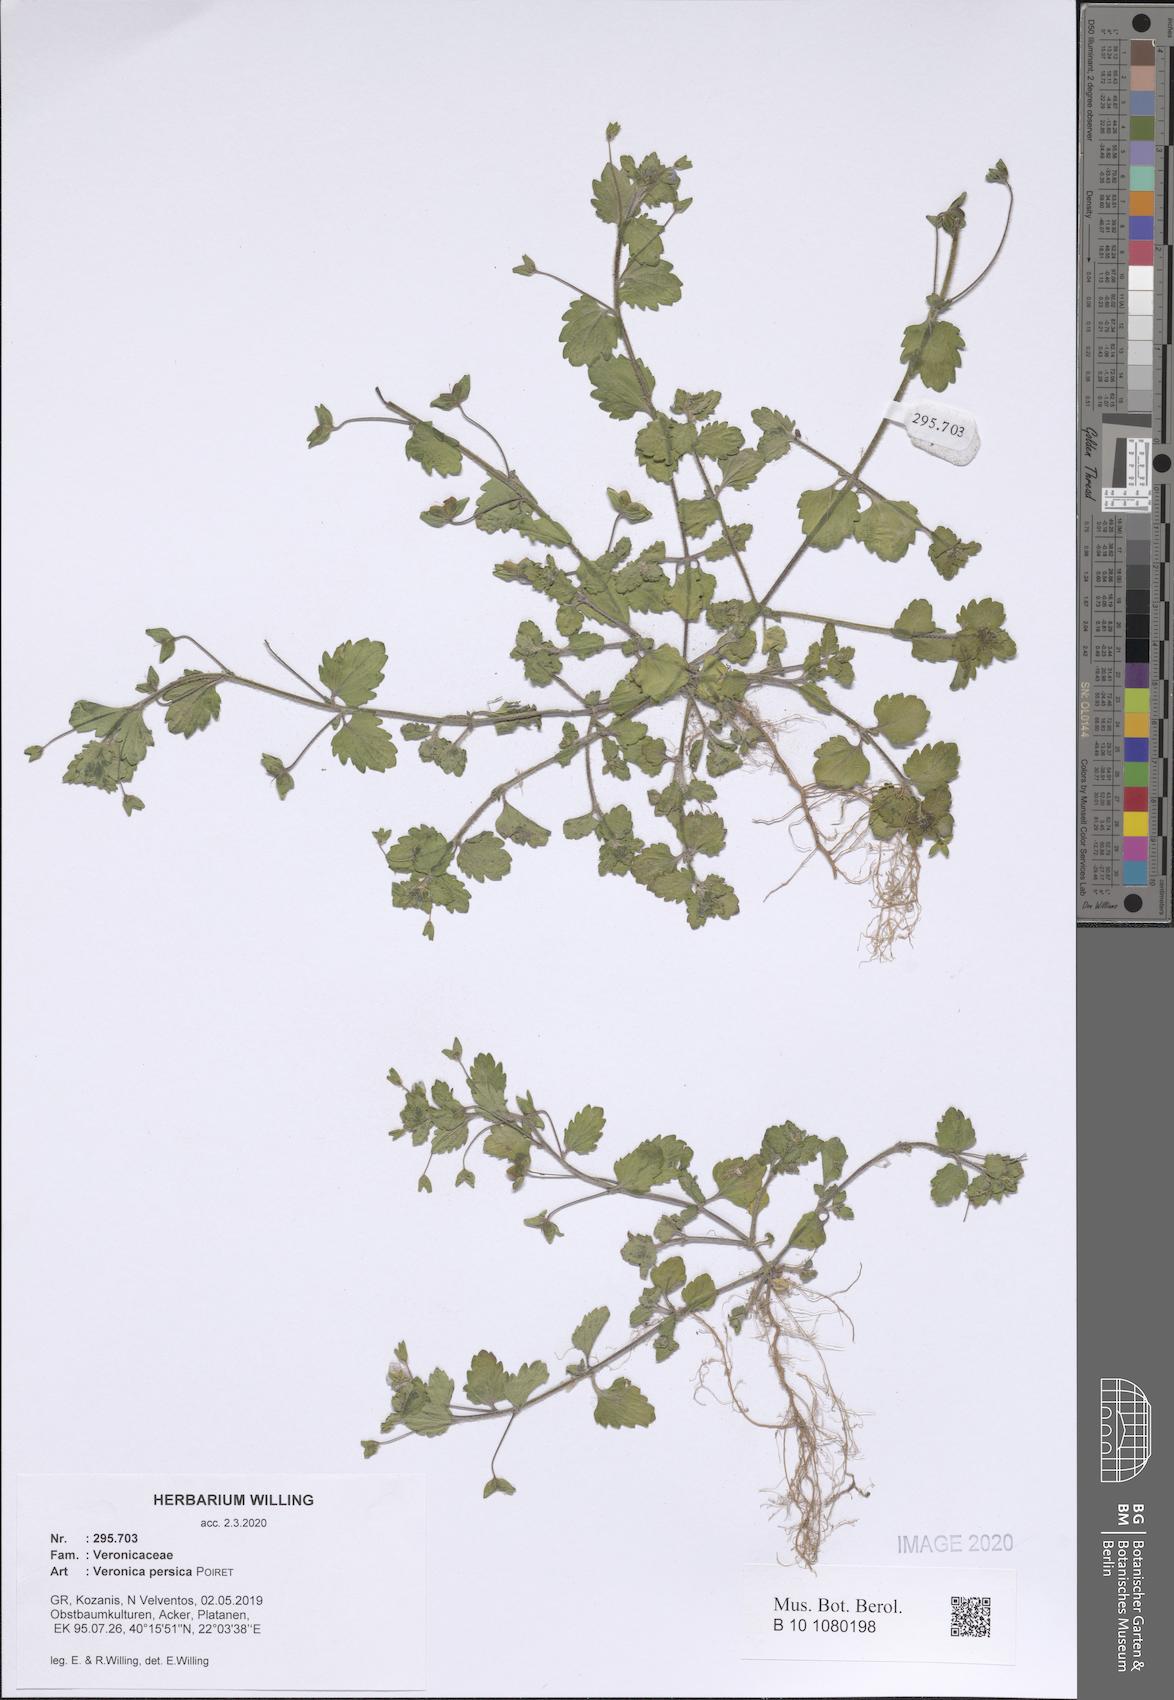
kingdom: Plantae
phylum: Tracheophyta
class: Magnoliopsida
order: Lamiales
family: Plantaginaceae
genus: Veronica
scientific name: Veronica persica
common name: Common field-speedwell
